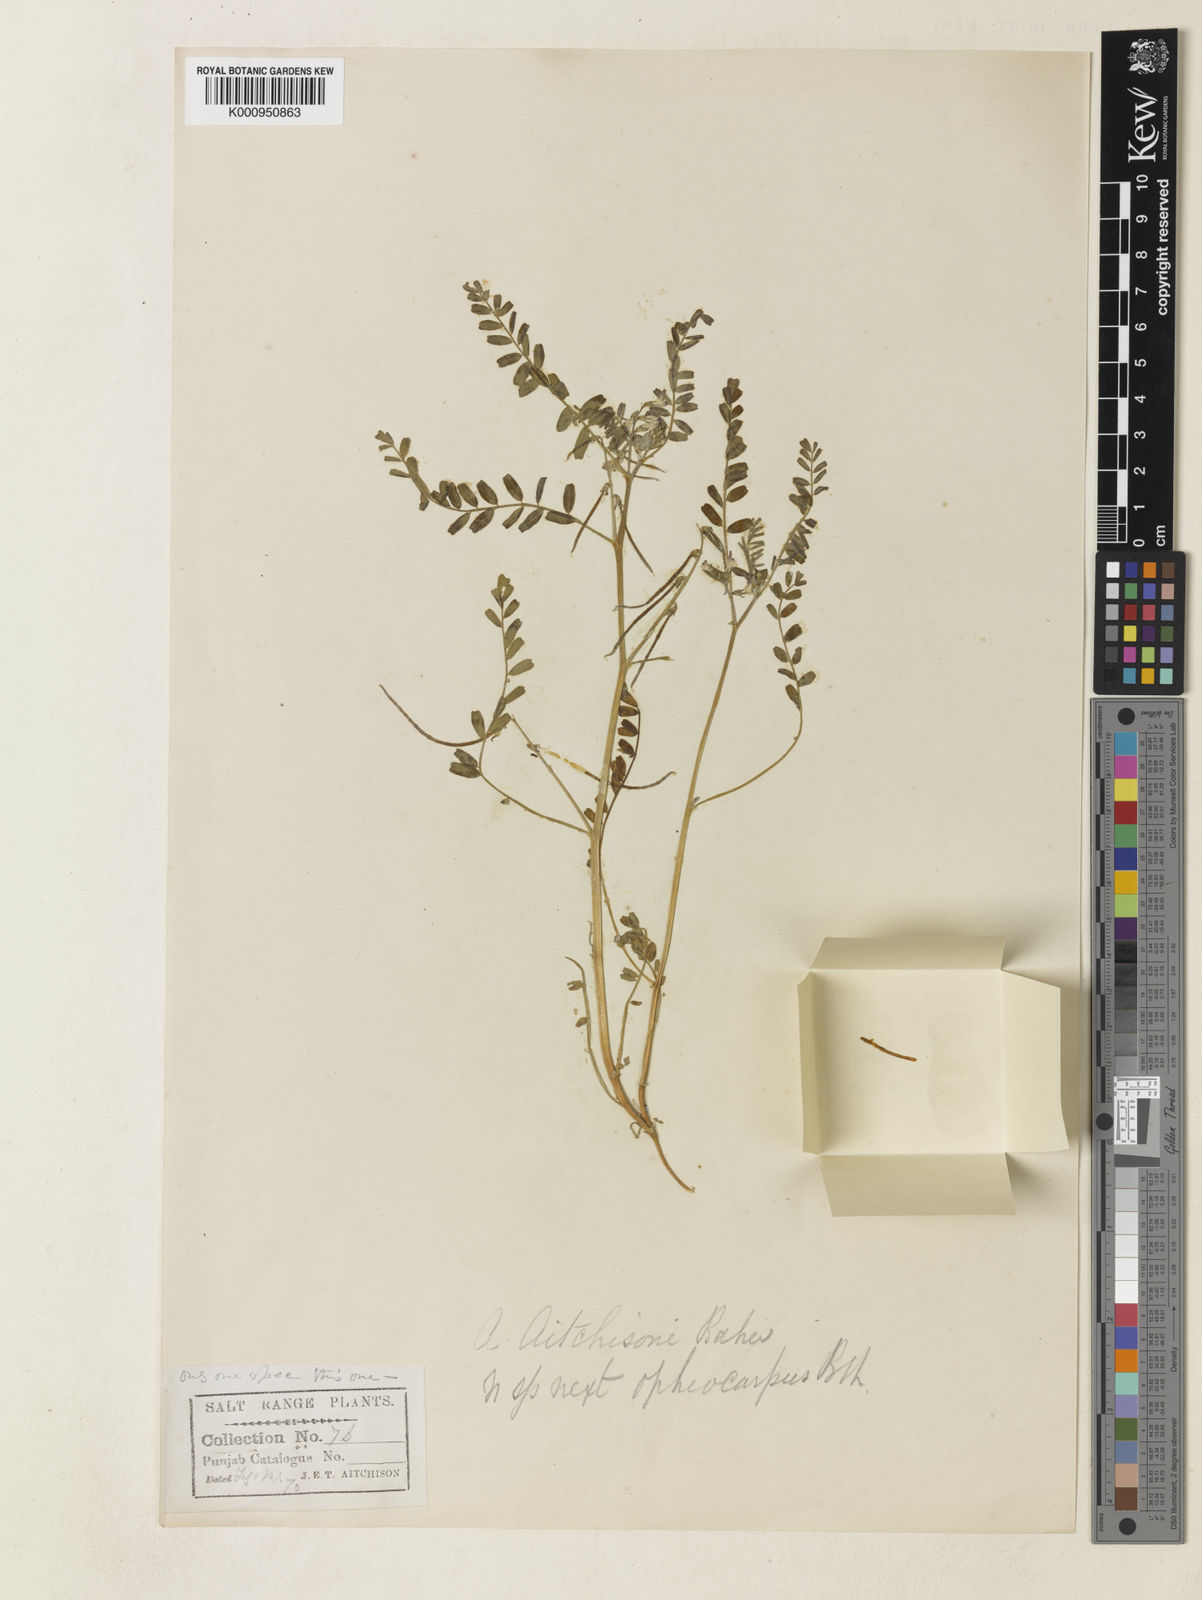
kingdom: Plantae
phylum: Tracheophyta
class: Magnoliopsida
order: Fabales
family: Fabaceae
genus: Astragalus
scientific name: Astragalus
